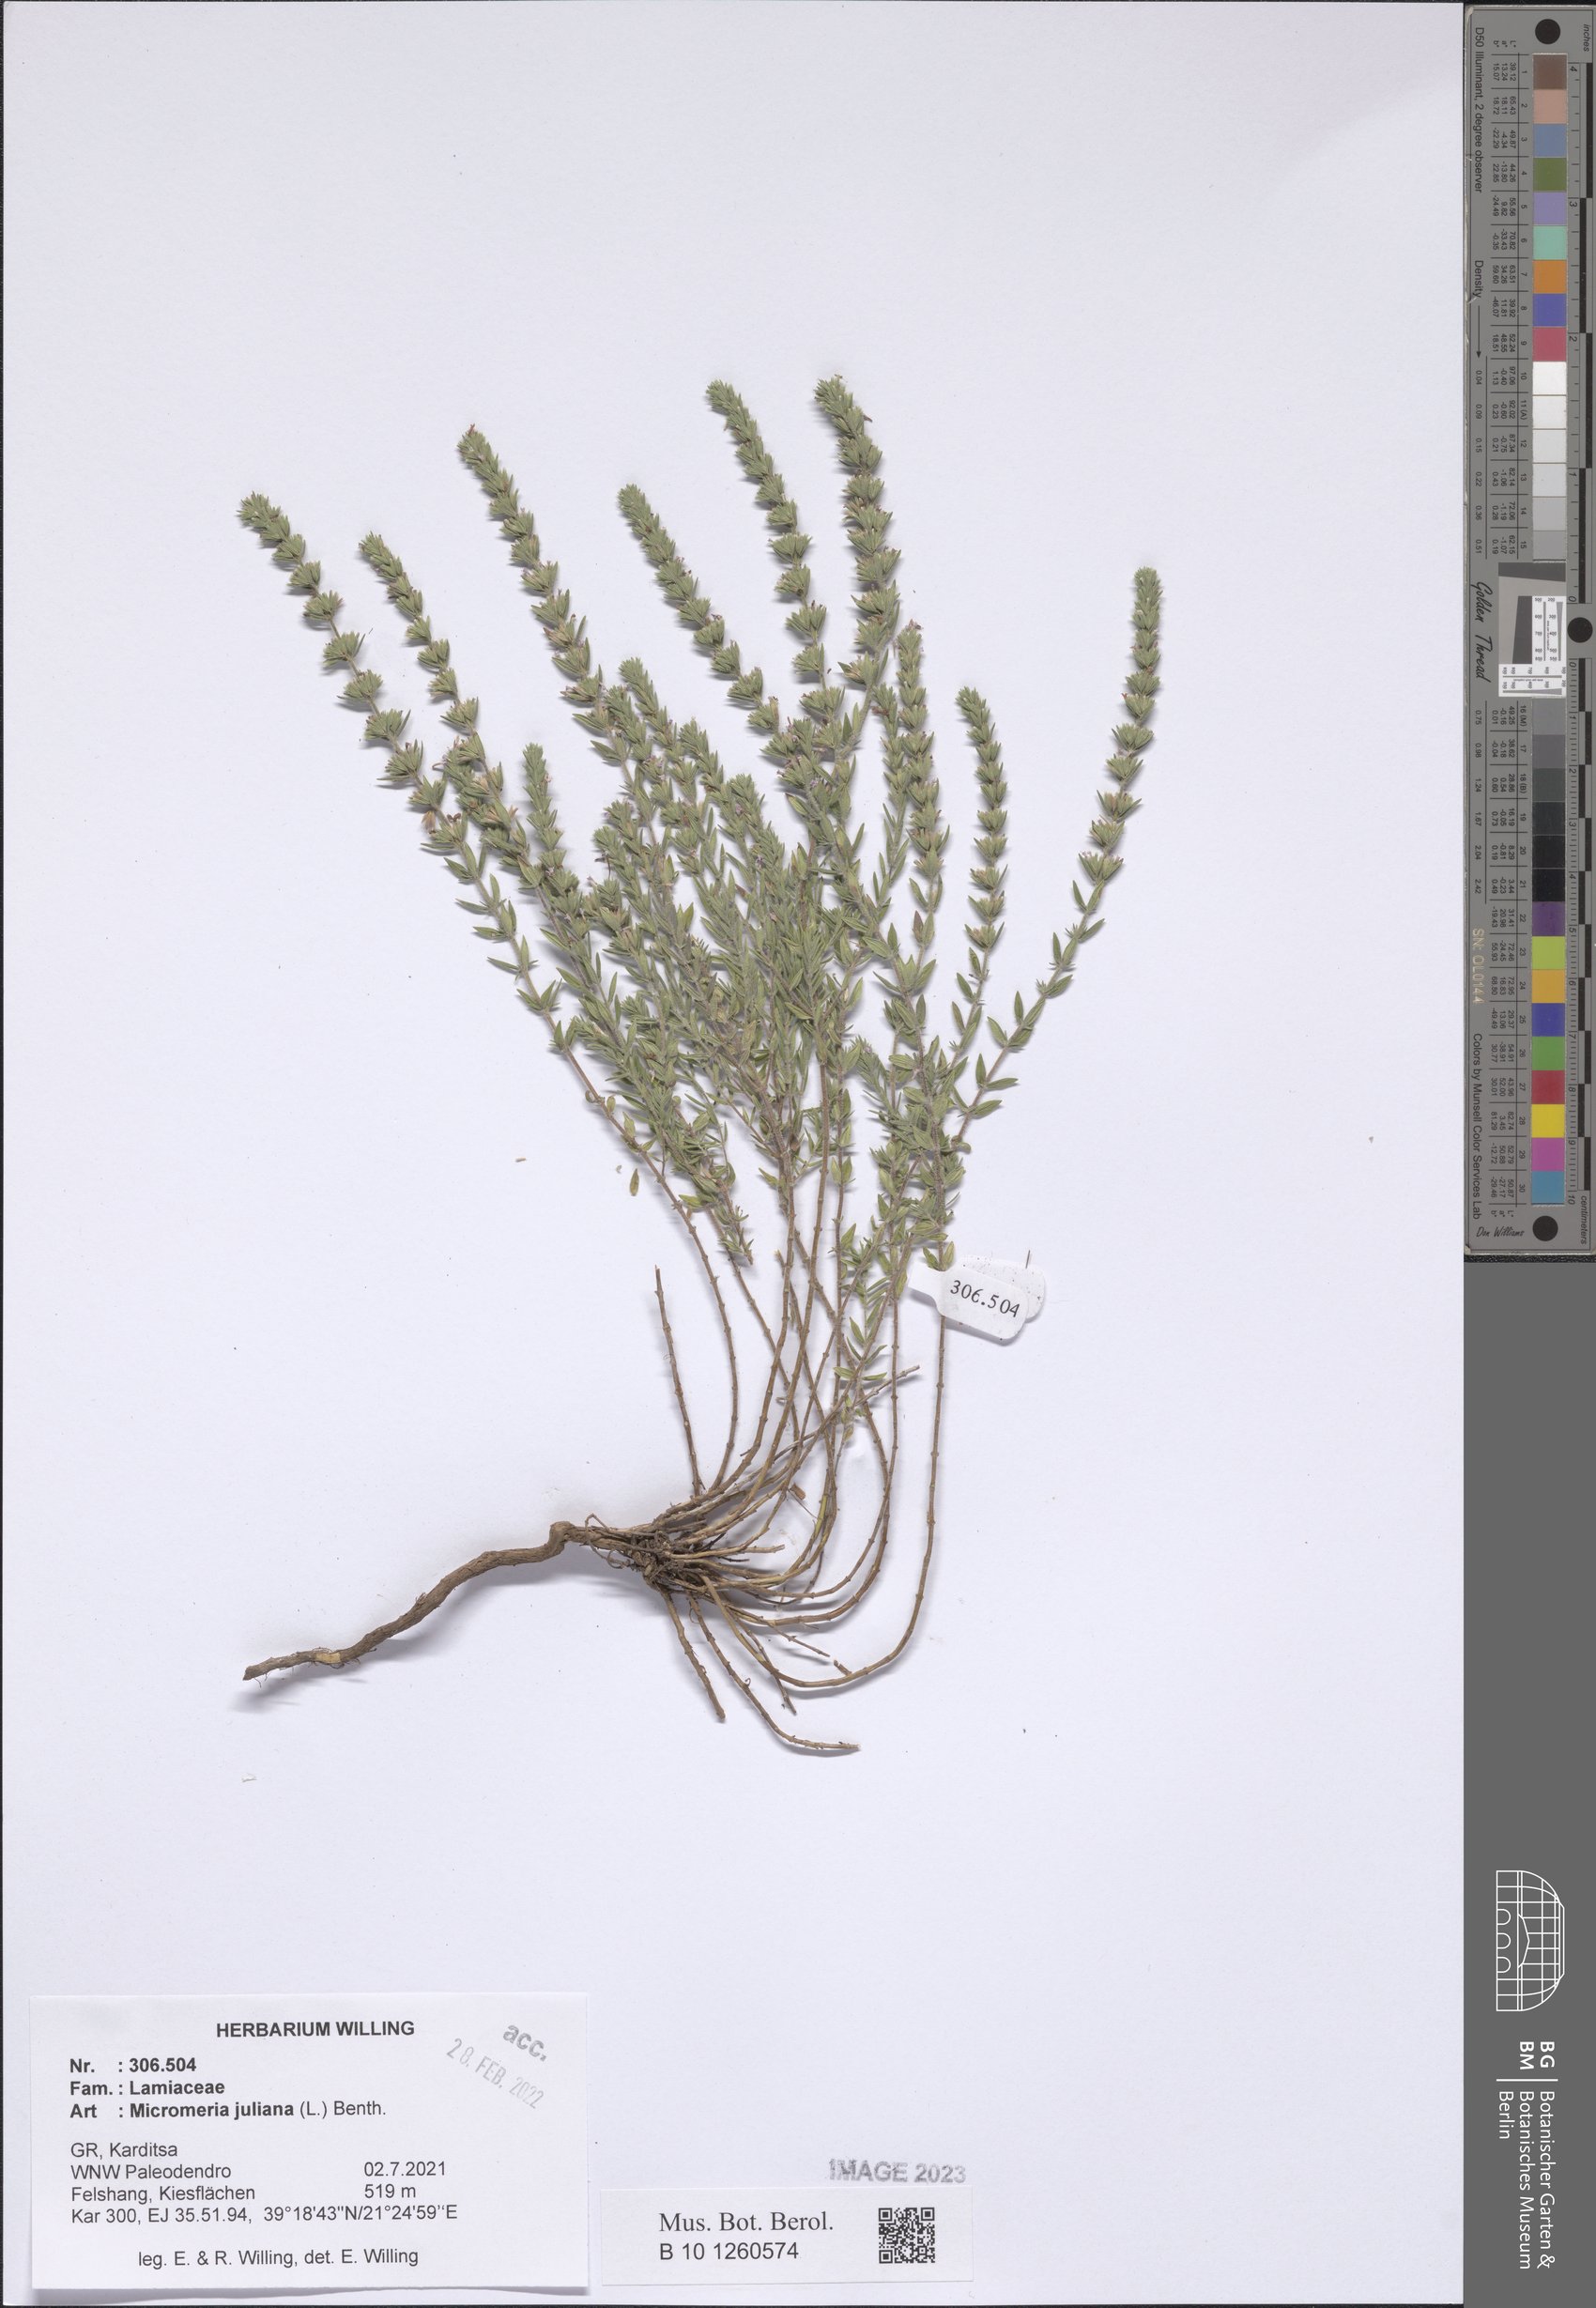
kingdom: Plantae
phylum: Tracheophyta
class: Magnoliopsida
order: Lamiales
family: Lamiaceae
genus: Micromeria
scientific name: Micromeria juliana
